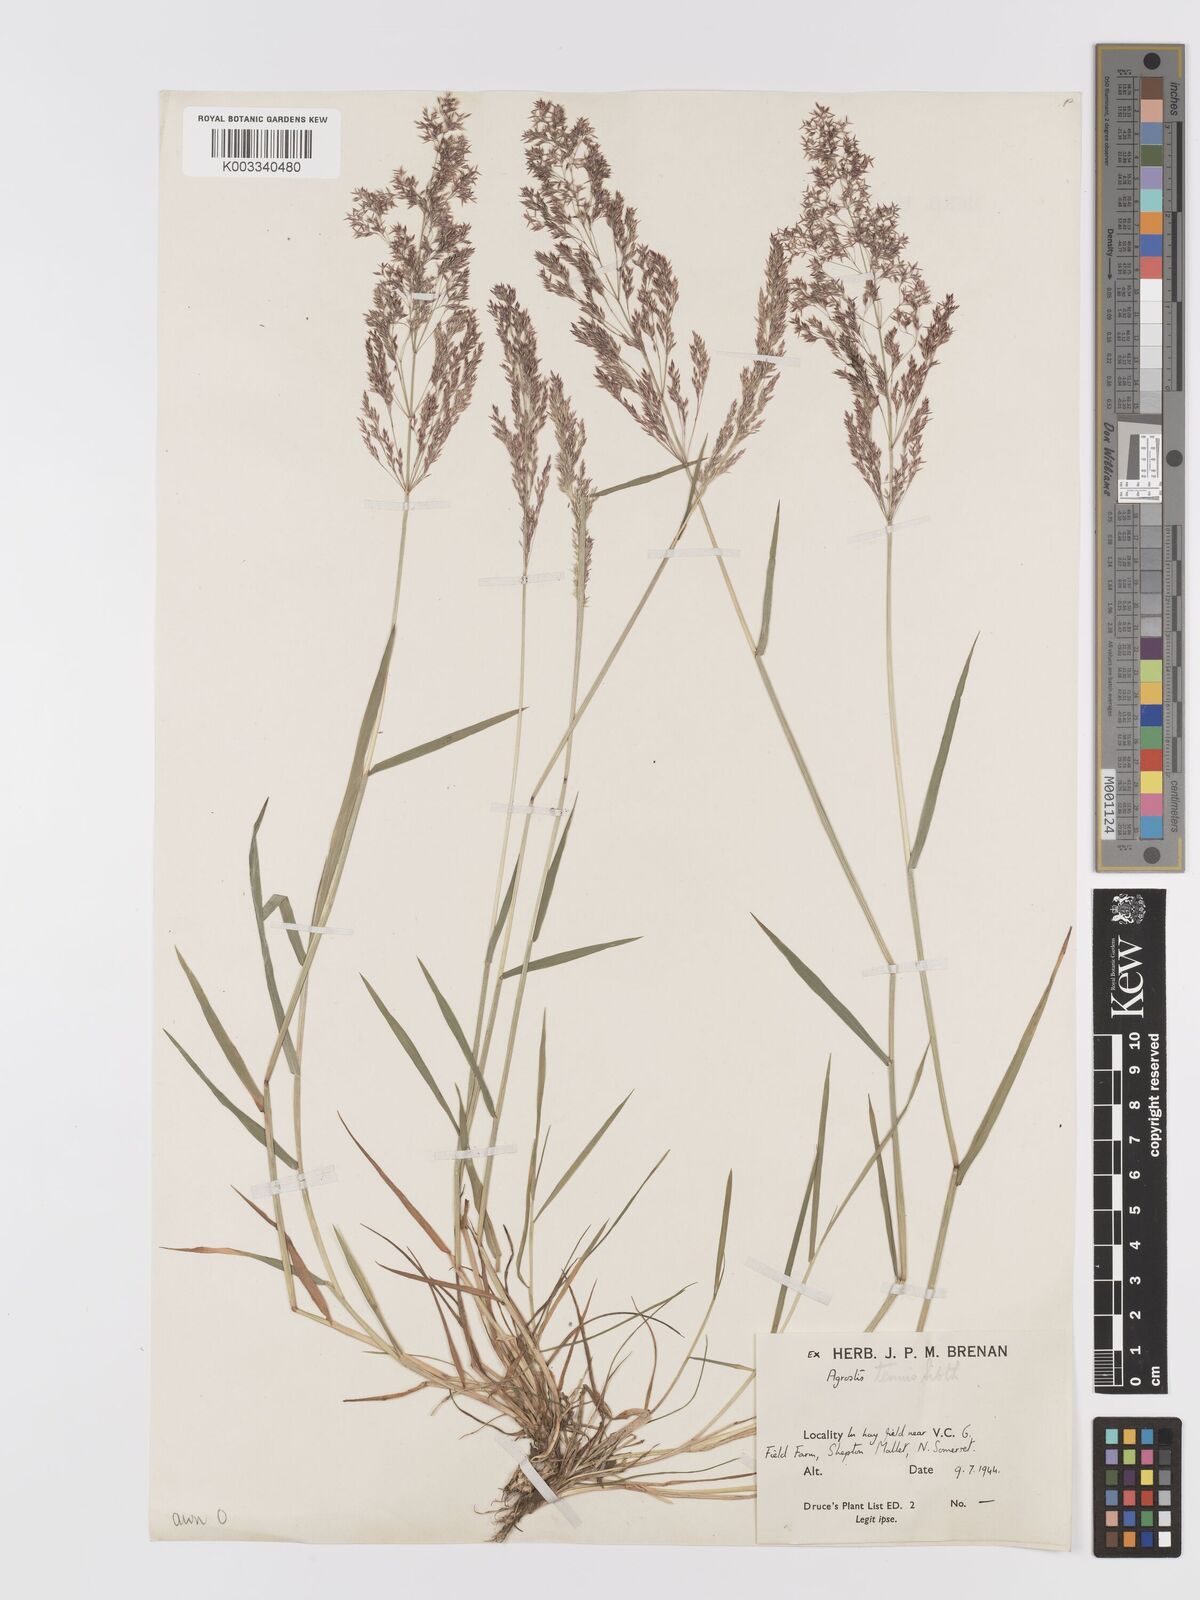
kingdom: Plantae
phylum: Tracheophyta
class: Liliopsida
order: Poales
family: Poaceae
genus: Agrostis
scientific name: Agrostis capillaris
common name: Colonial bentgrass
